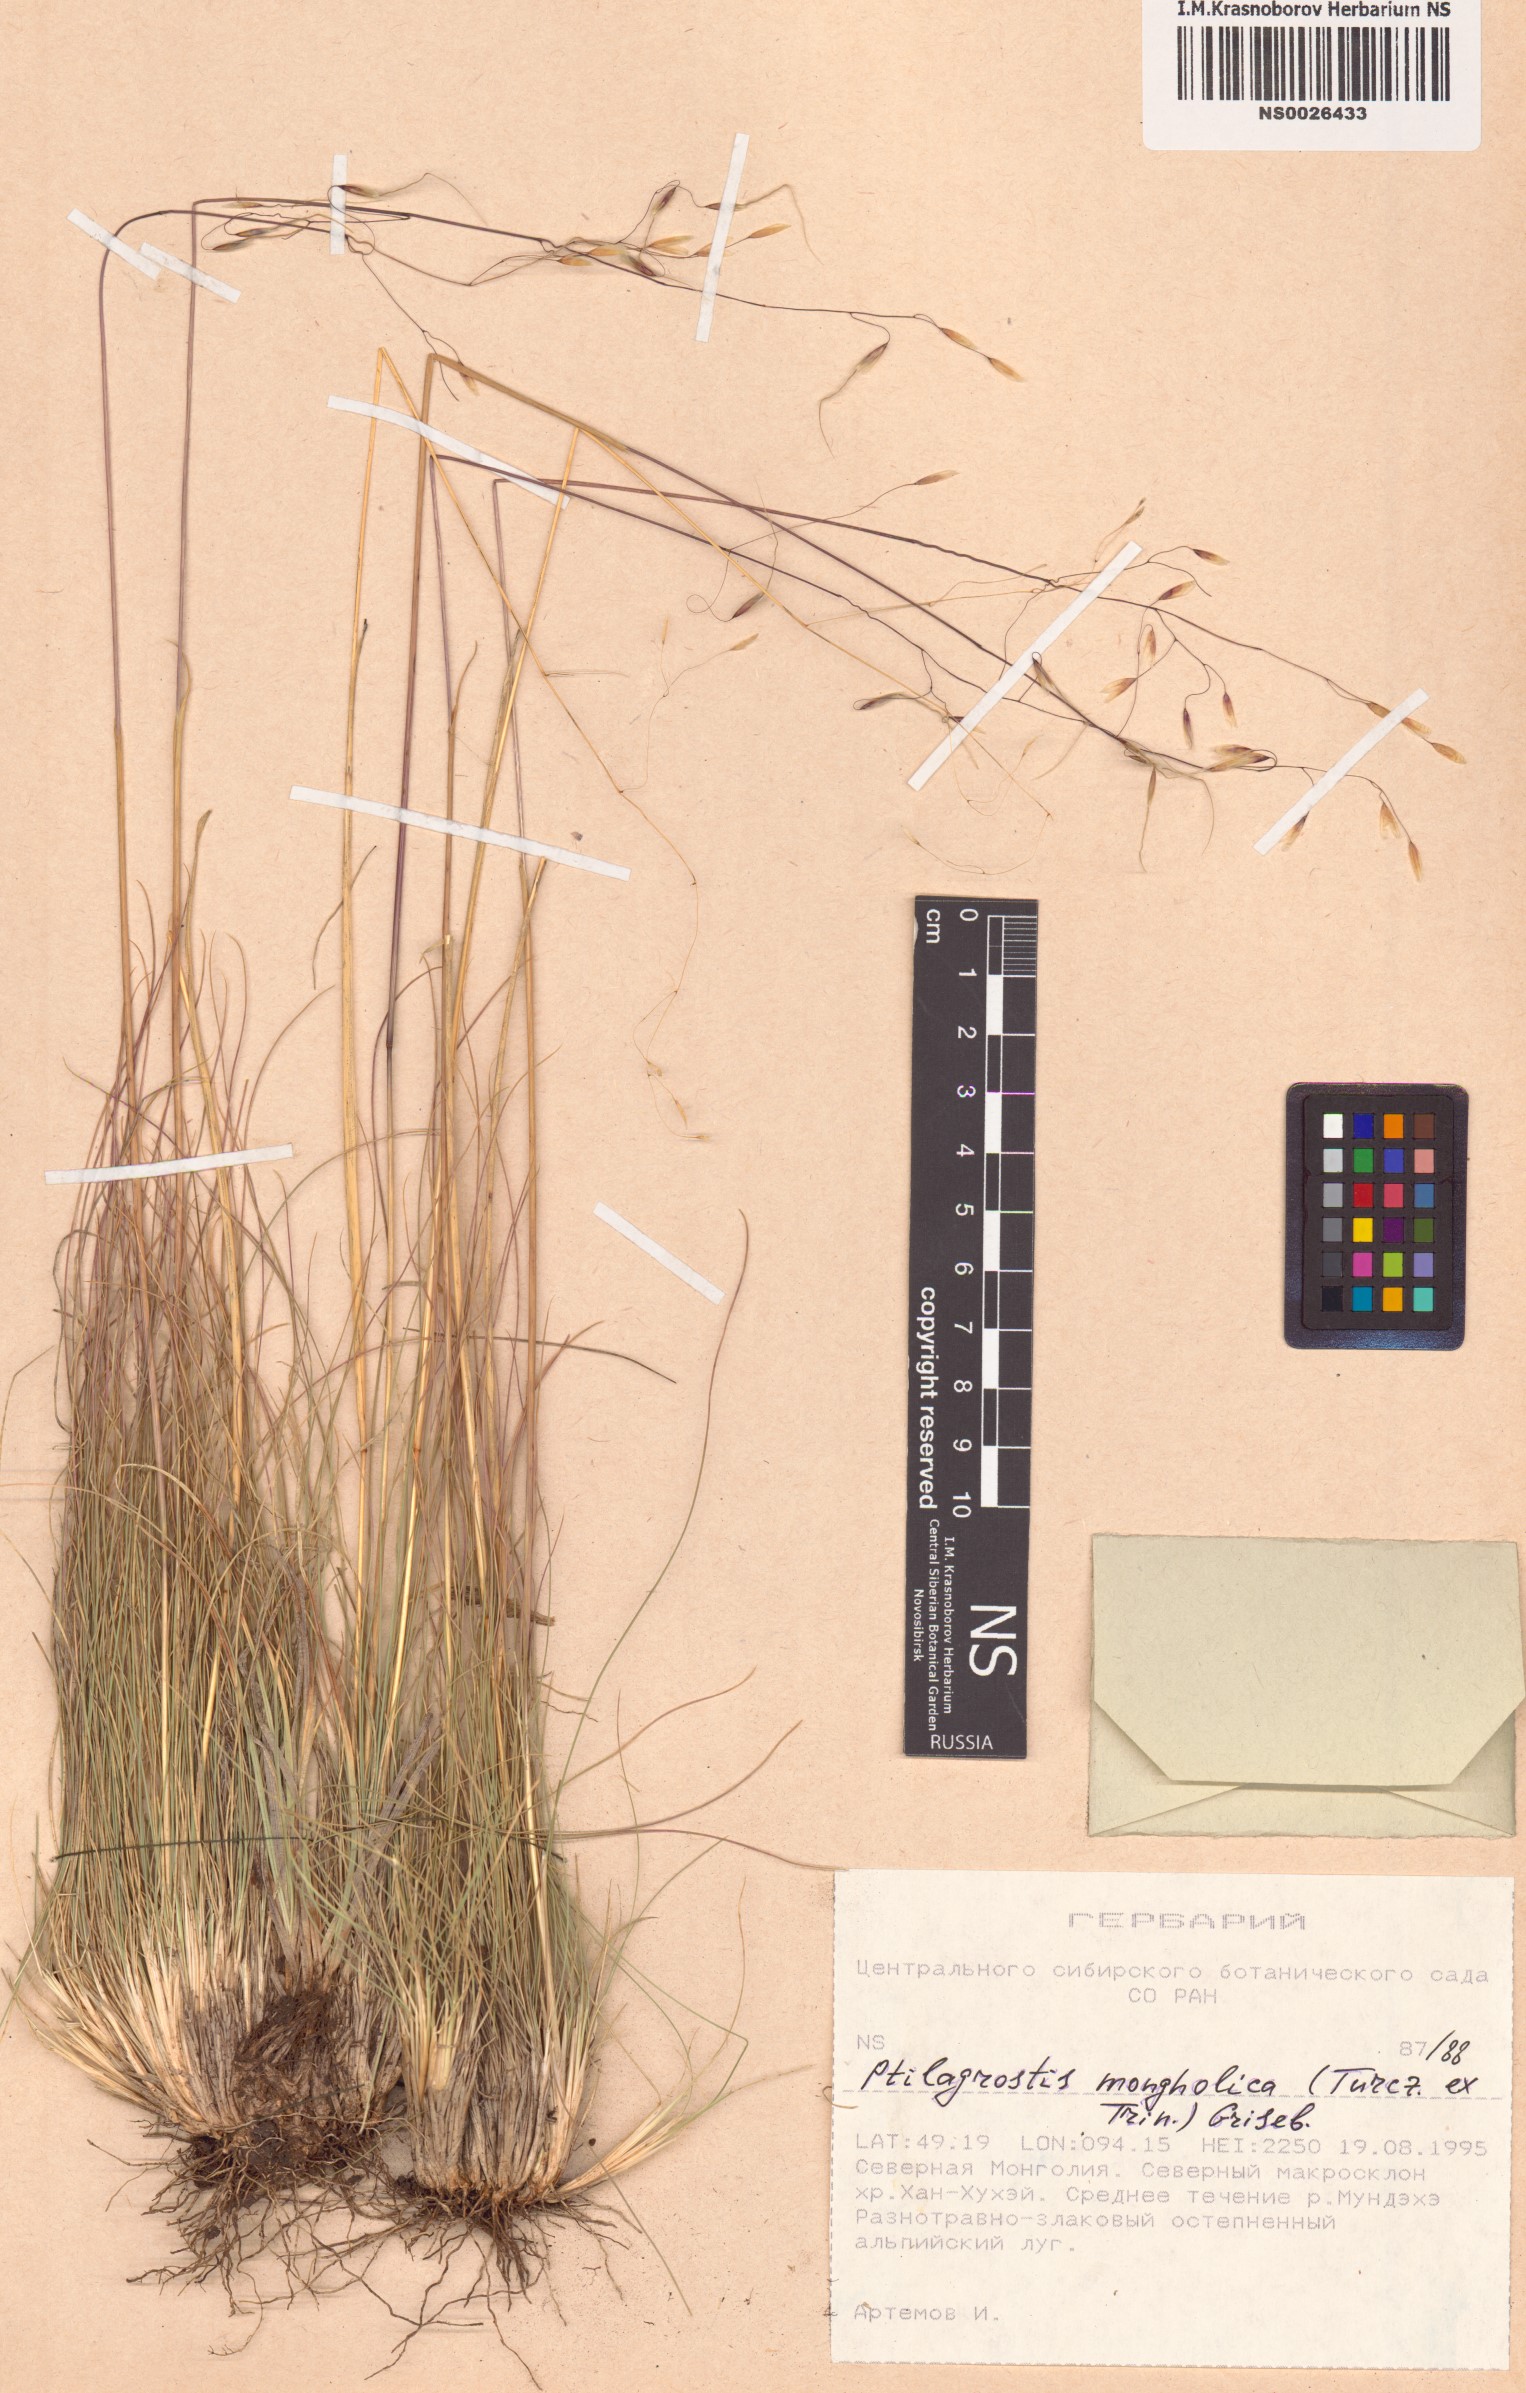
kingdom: Plantae
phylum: Tracheophyta
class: Liliopsida
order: Poales
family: Poaceae
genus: Ptilagrostis
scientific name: Ptilagrostis mongholica
